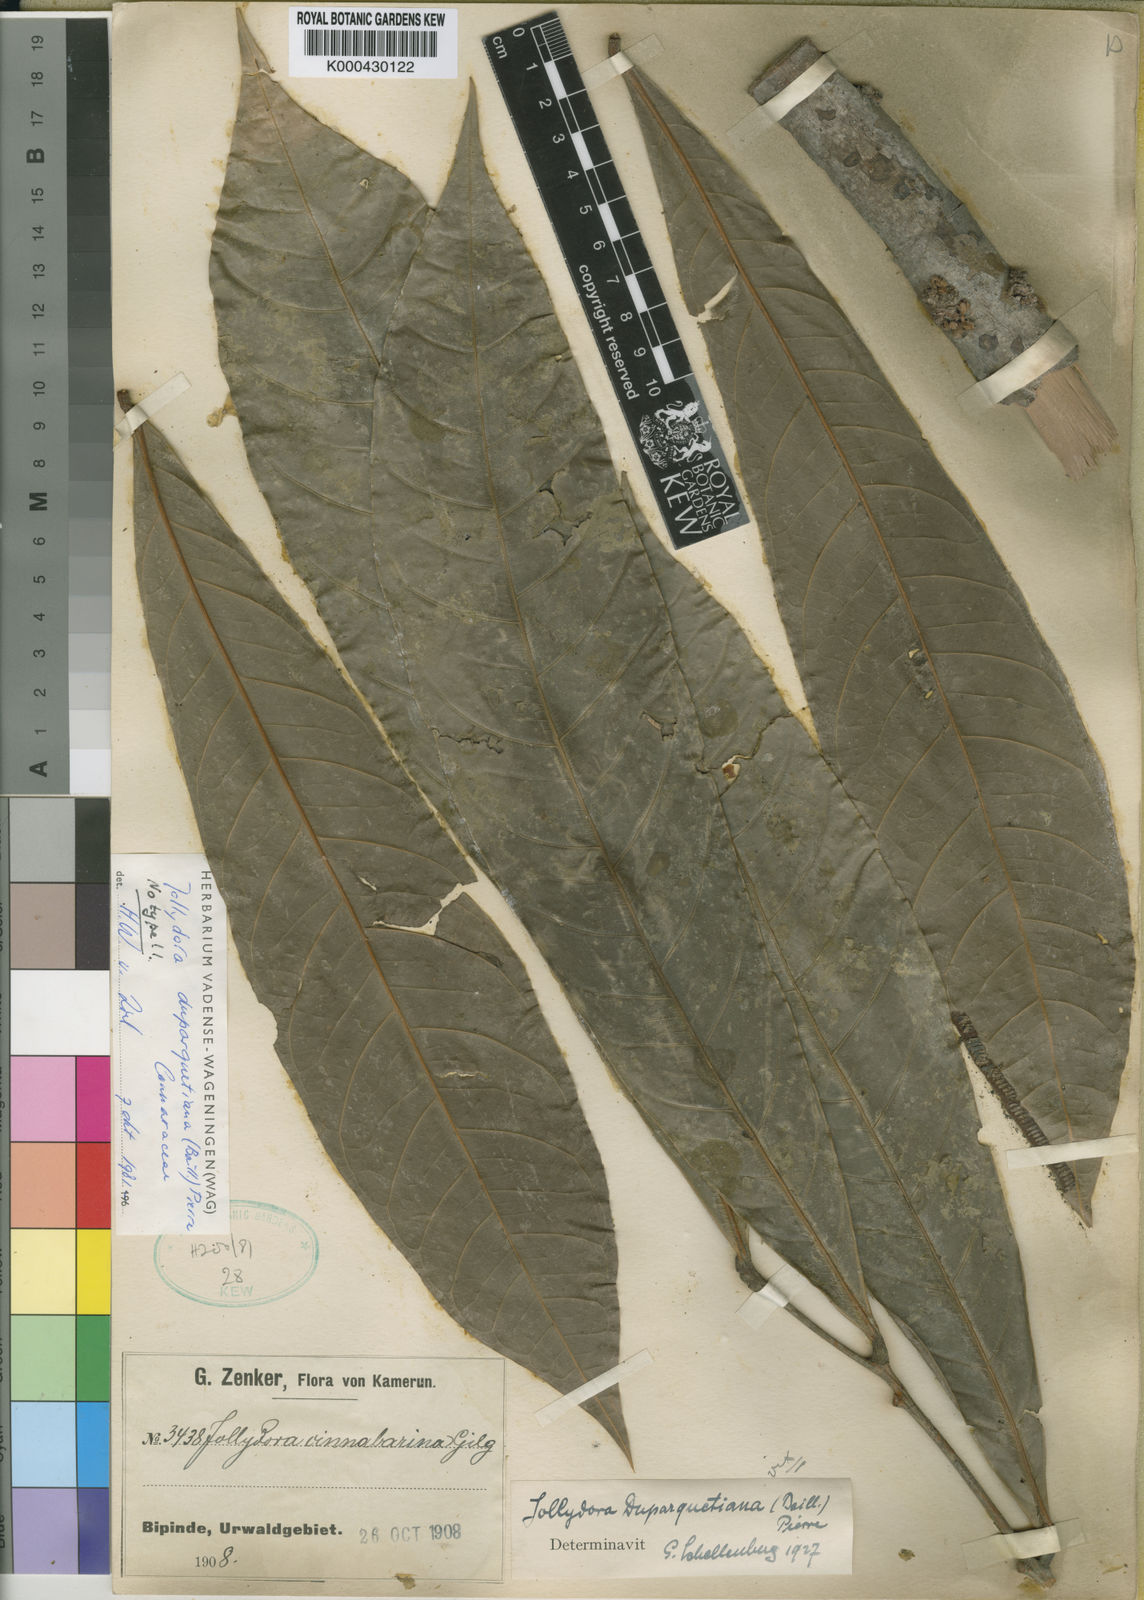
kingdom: Plantae
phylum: Tracheophyta
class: Magnoliopsida
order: Oxalidales
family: Connaraceae
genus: Jollydora
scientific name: Jollydora duparquetiana
